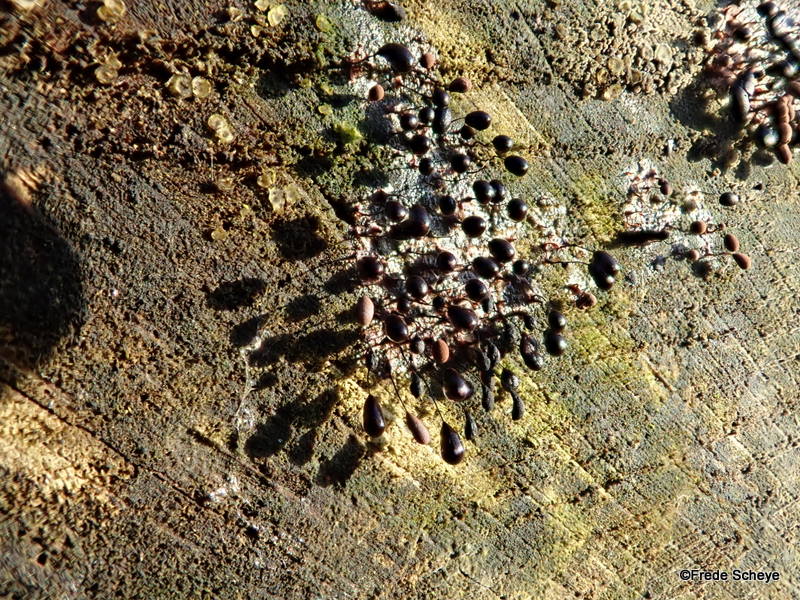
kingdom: Protozoa
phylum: Mycetozoa
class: Myxomycetes
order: Stemonitidales
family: Stemonitidaceae
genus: Comatricha
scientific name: Comatricha nigra
